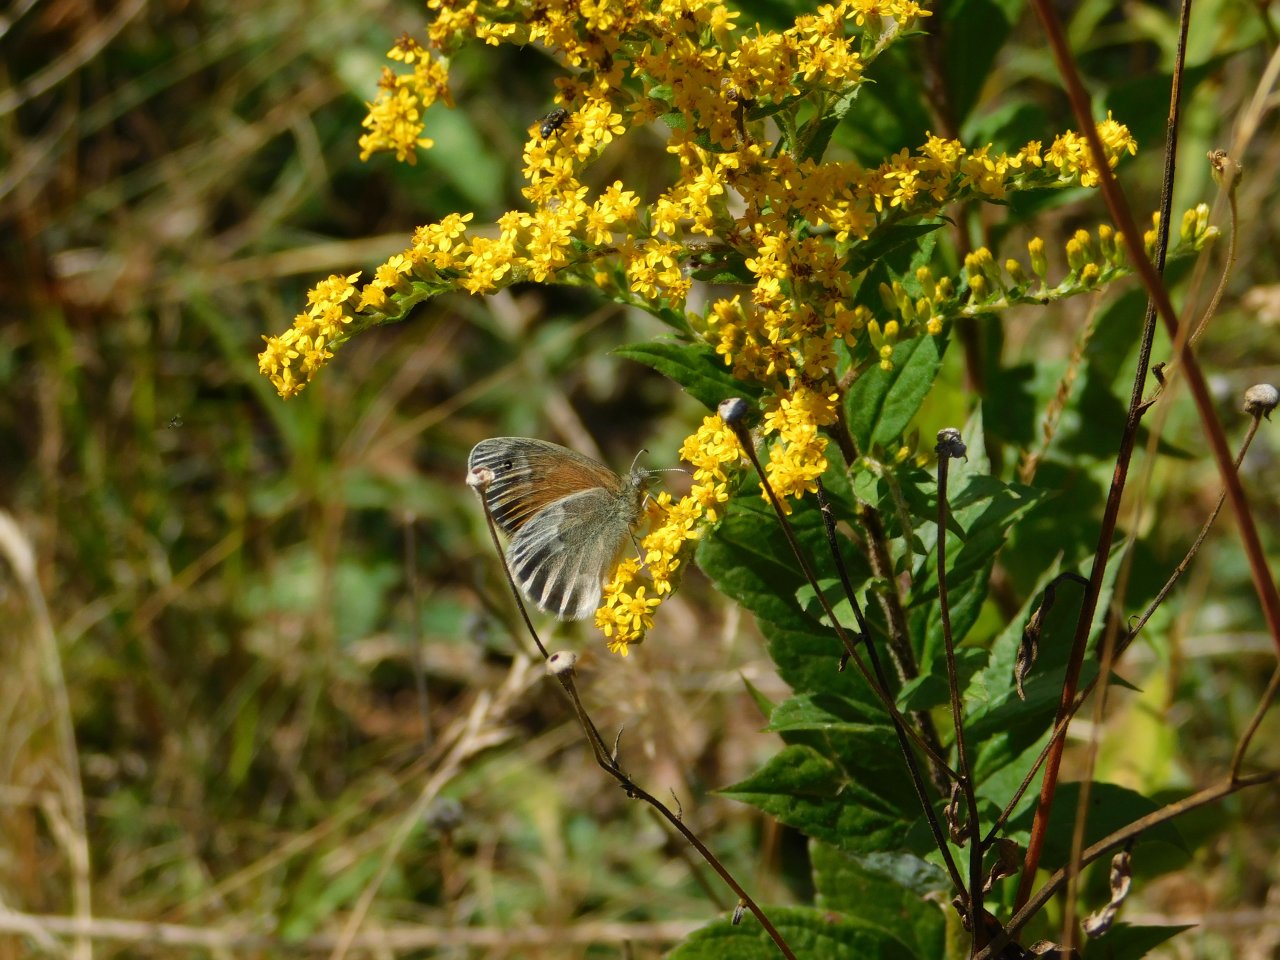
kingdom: Animalia
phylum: Arthropoda
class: Insecta
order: Lepidoptera
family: Nymphalidae
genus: Coenonympha
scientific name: Coenonympha tullia
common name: Large Heath
